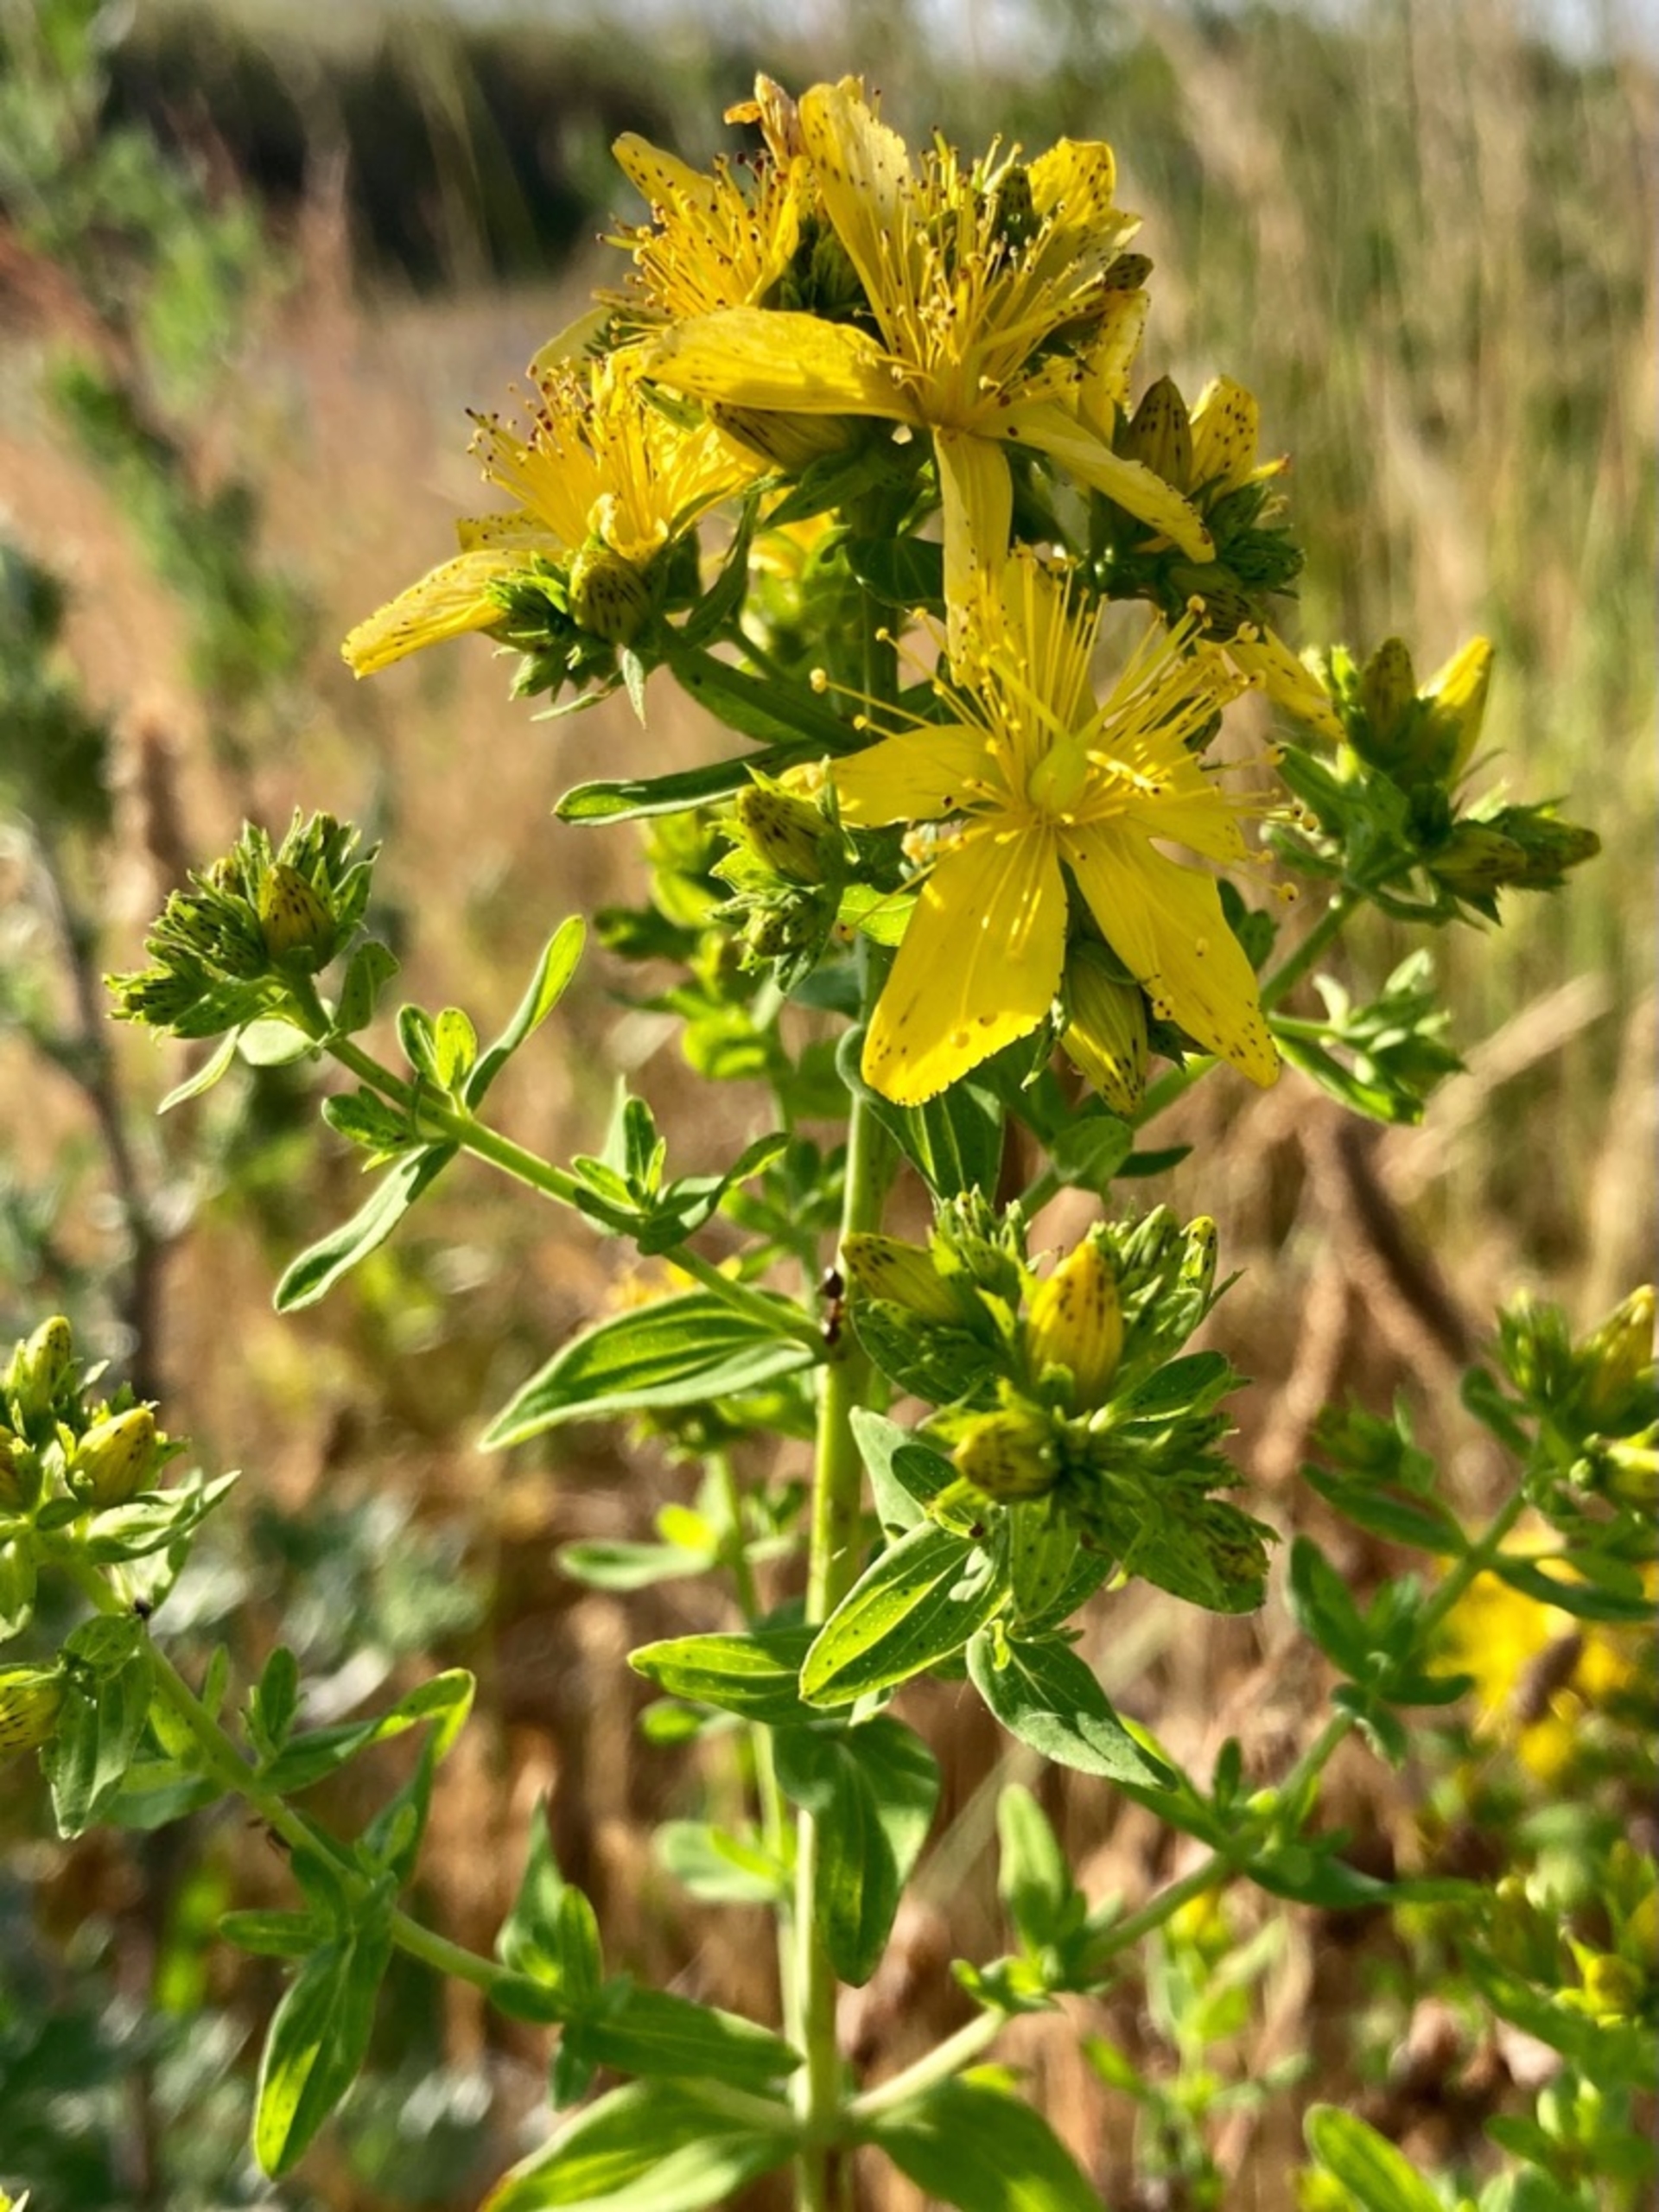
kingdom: Plantae
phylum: Tracheophyta
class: Magnoliopsida
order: Malpighiales
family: Hypericaceae
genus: Hypericum
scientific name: Hypericum perforatum
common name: Prikbladet perikon
